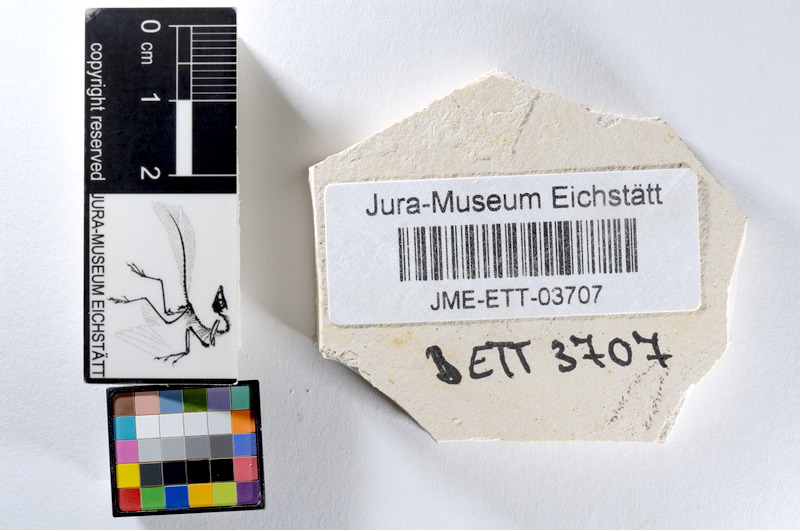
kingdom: Animalia
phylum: Chordata
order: Salmoniformes
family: Orthogonikleithridae
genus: Orthogonikleithrus
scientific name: Orthogonikleithrus hoelli
